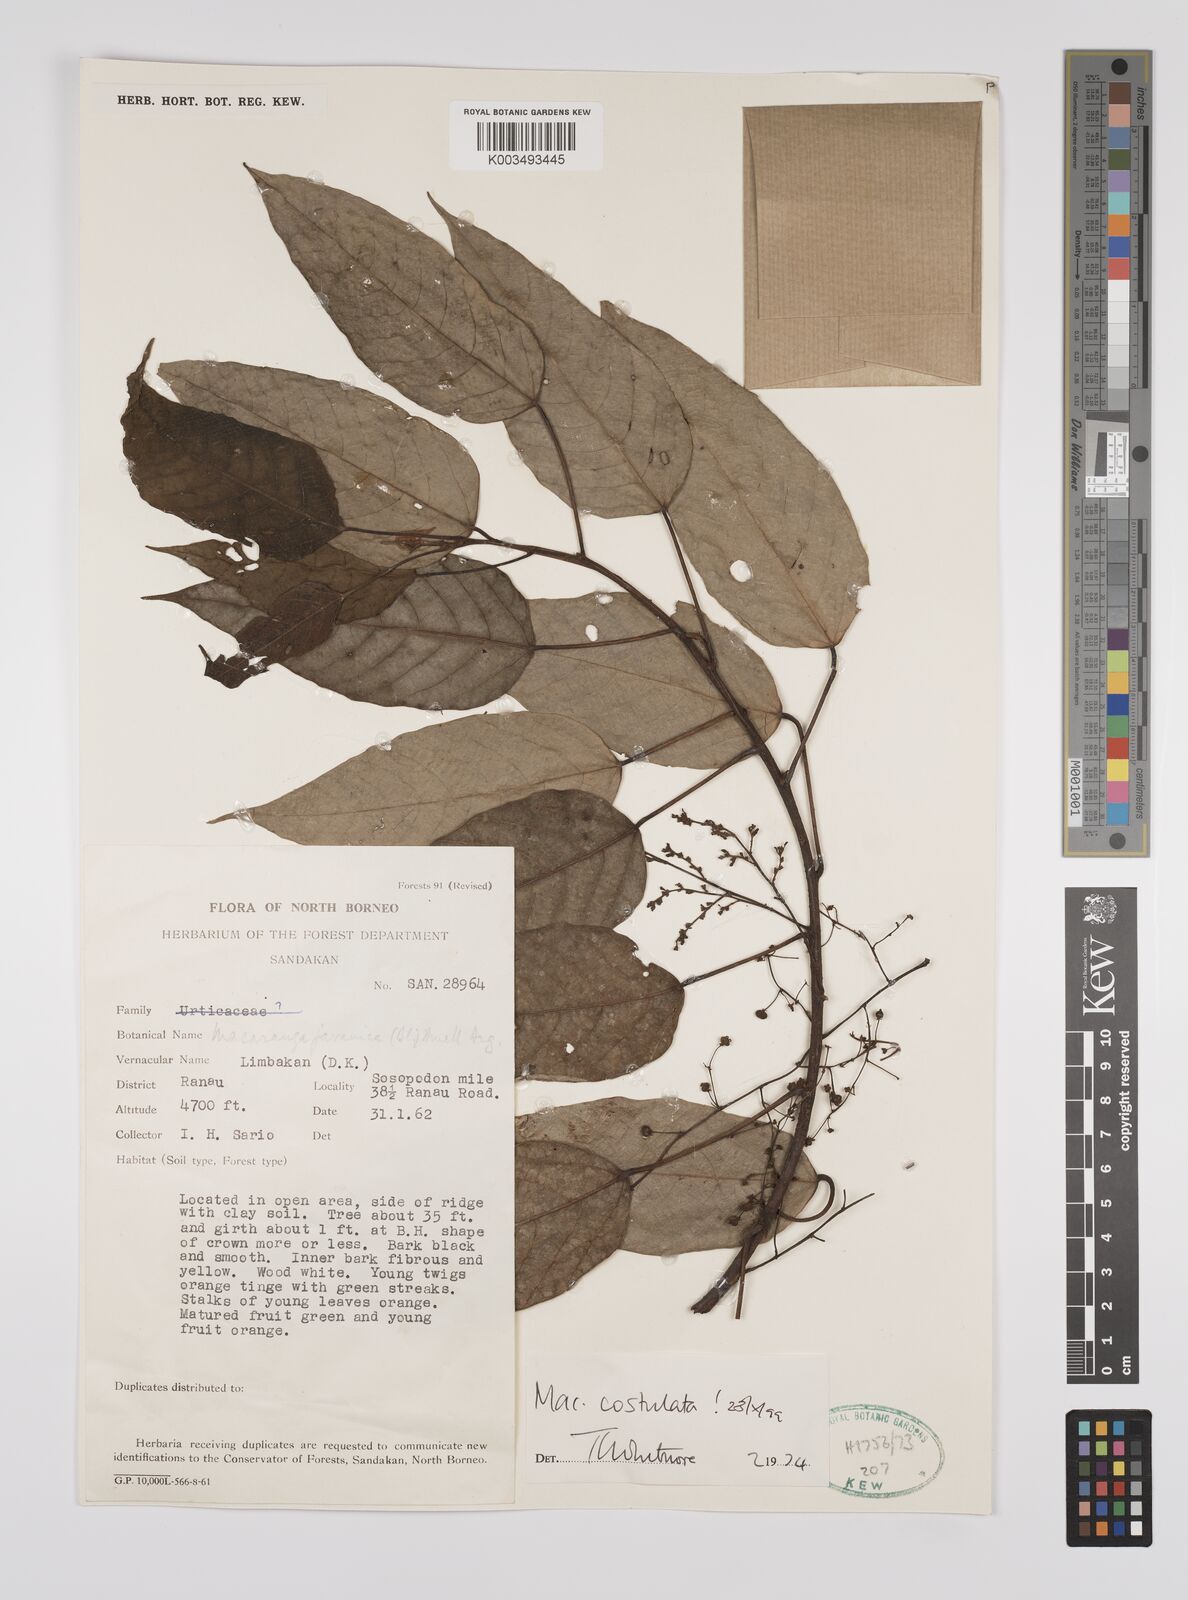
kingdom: Plantae
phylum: Tracheophyta
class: Magnoliopsida
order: Malpighiales
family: Euphorbiaceae
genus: Macaranga
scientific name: Macaranga costulata
